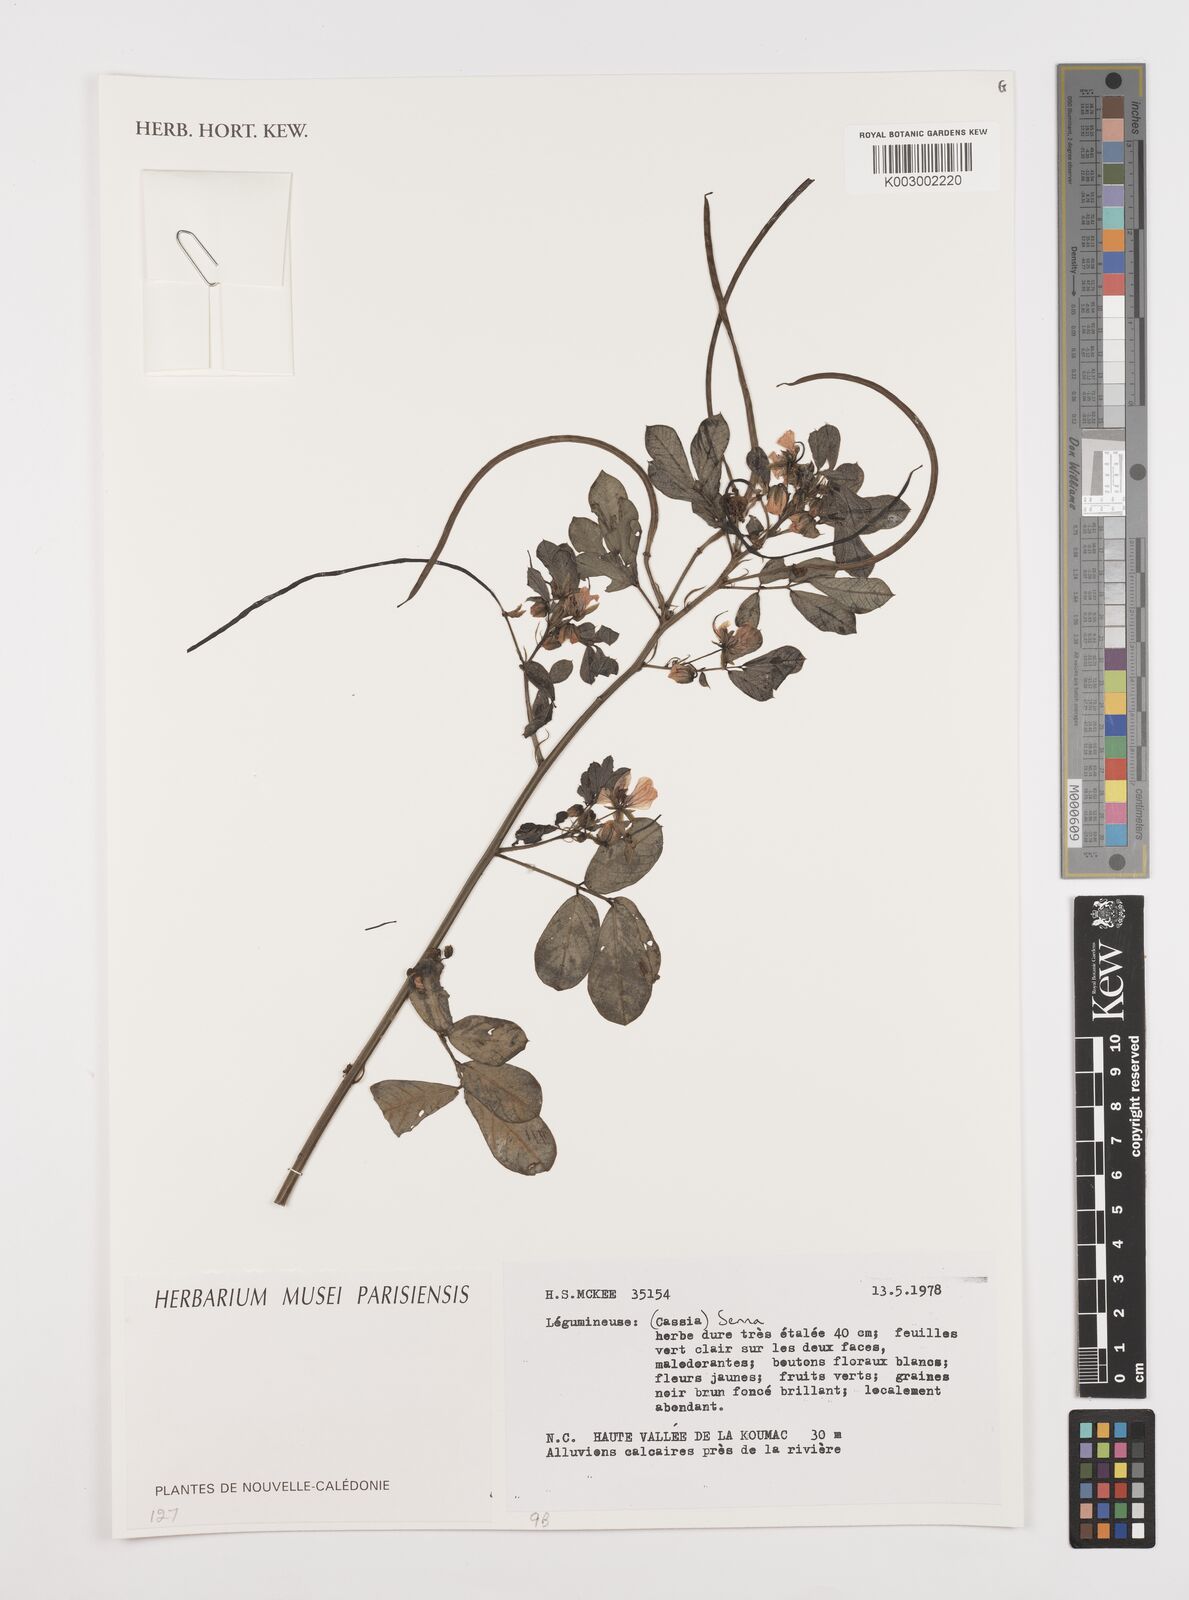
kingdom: Plantae
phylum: Tracheophyta
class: Magnoliopsida
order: Fabales
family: Fabaceae
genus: Cassia
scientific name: Cassia
